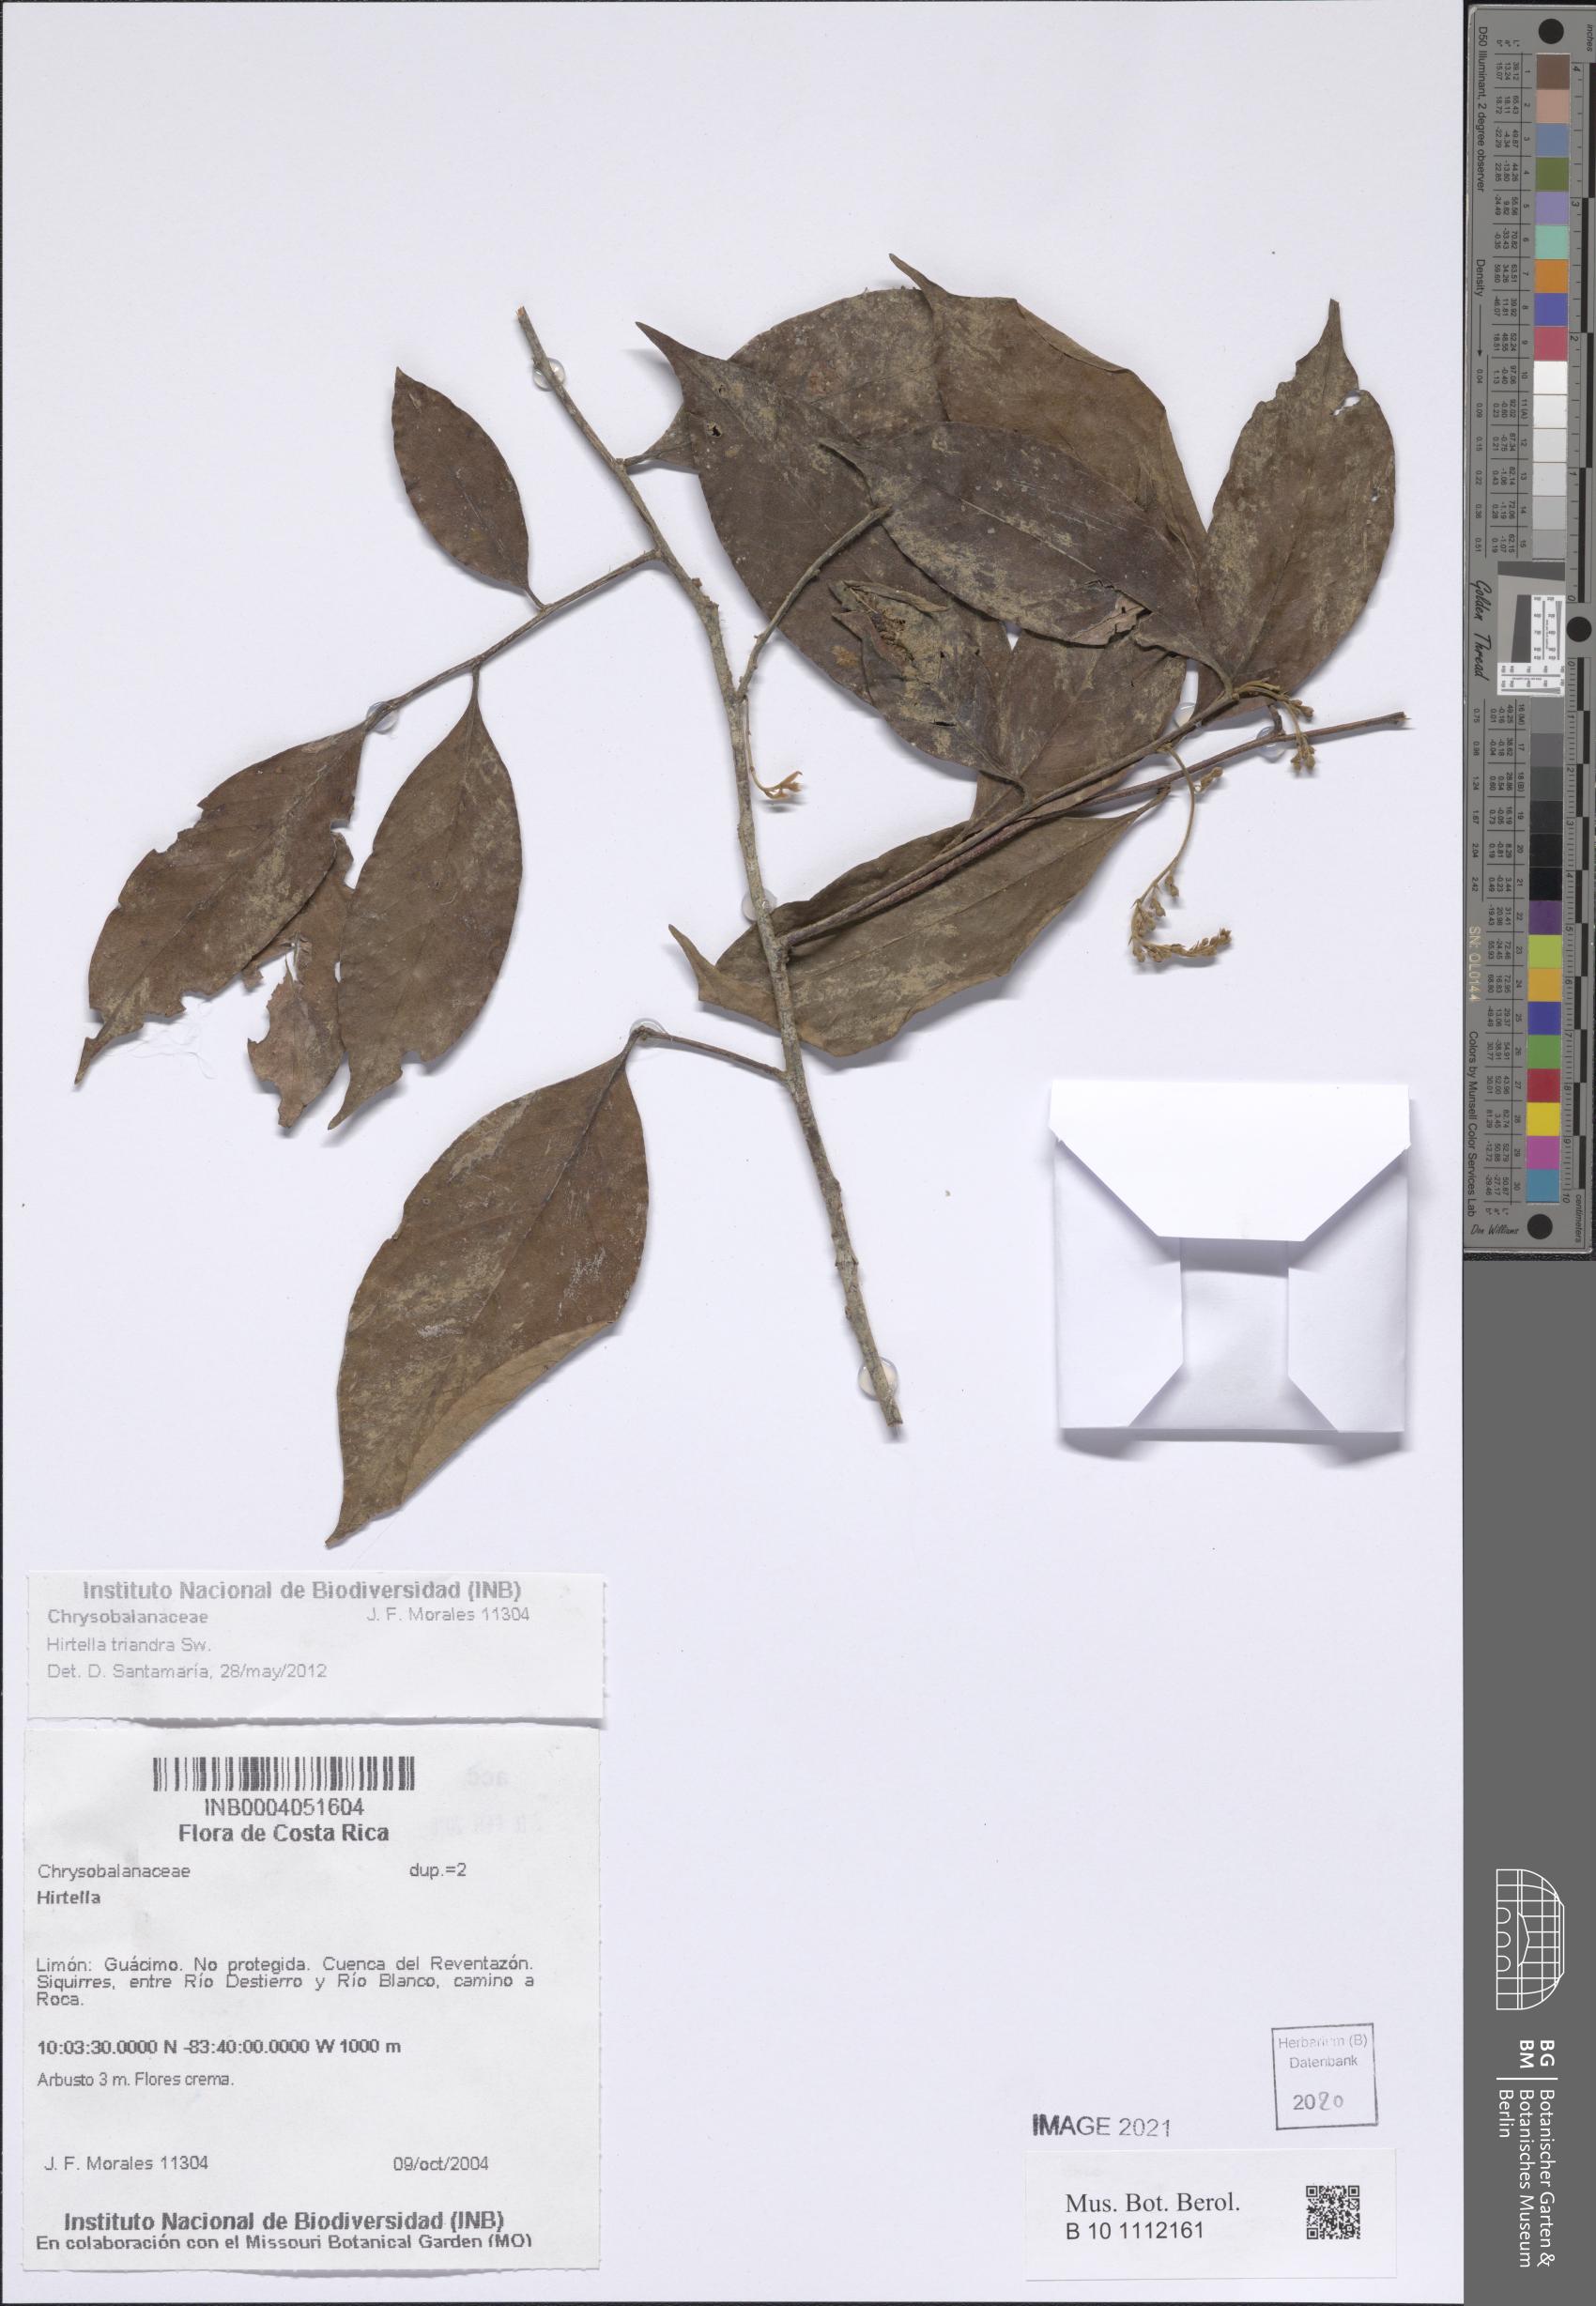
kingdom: Plantae
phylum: Tracheophyta
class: Magnoliopsida
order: Malpighiales
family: Chrysobalanaceae
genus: Hirtella
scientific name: Hirtella triandra
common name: Hairy plum
